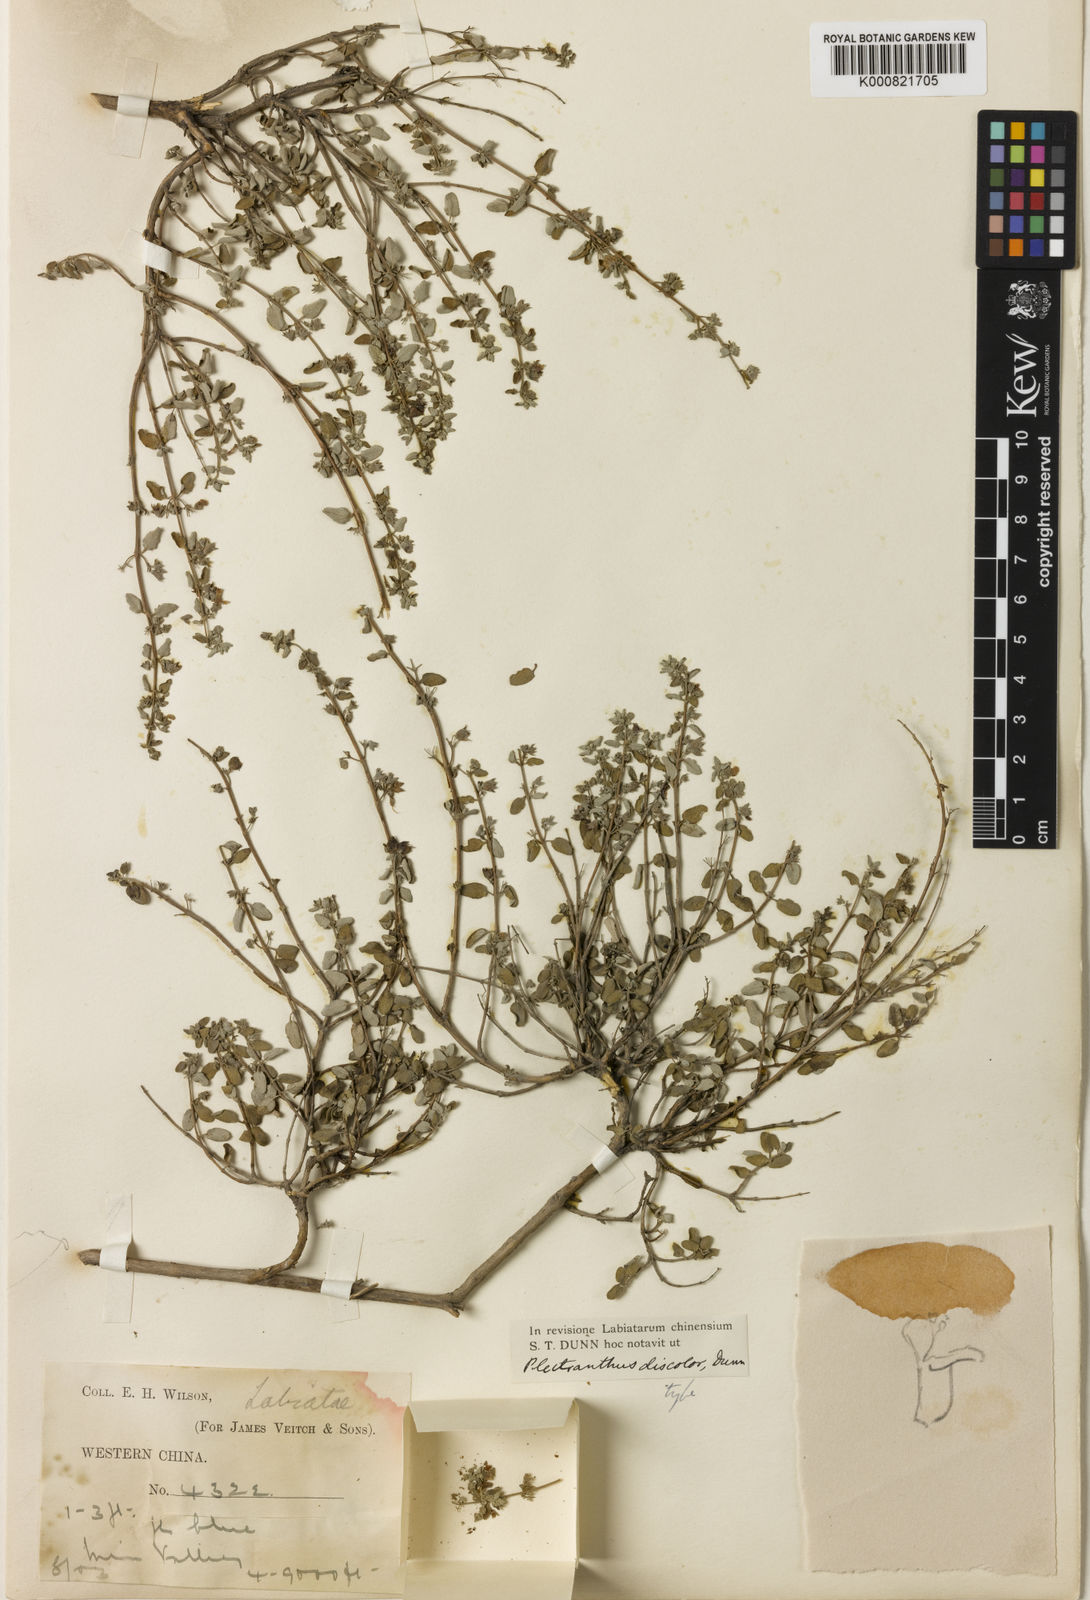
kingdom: Plantae
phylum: Tracheophyta
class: Magnoliopsida
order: Lamiales
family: Lamiaceae
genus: Isodon
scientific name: Isodon parvifolius
